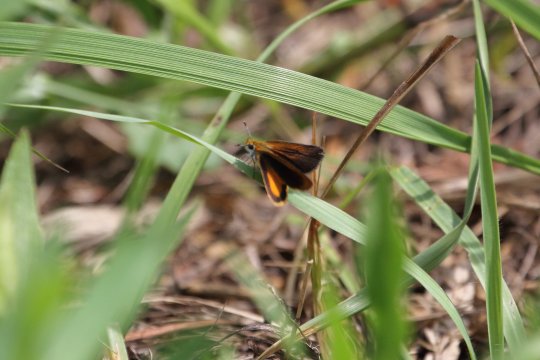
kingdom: Animalia
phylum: Arthropoda
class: Insecta
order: Lepidoptera
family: Hesperiidae
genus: Ancyloxypha
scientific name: Ancyloxypha numitor
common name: Least Skipper
